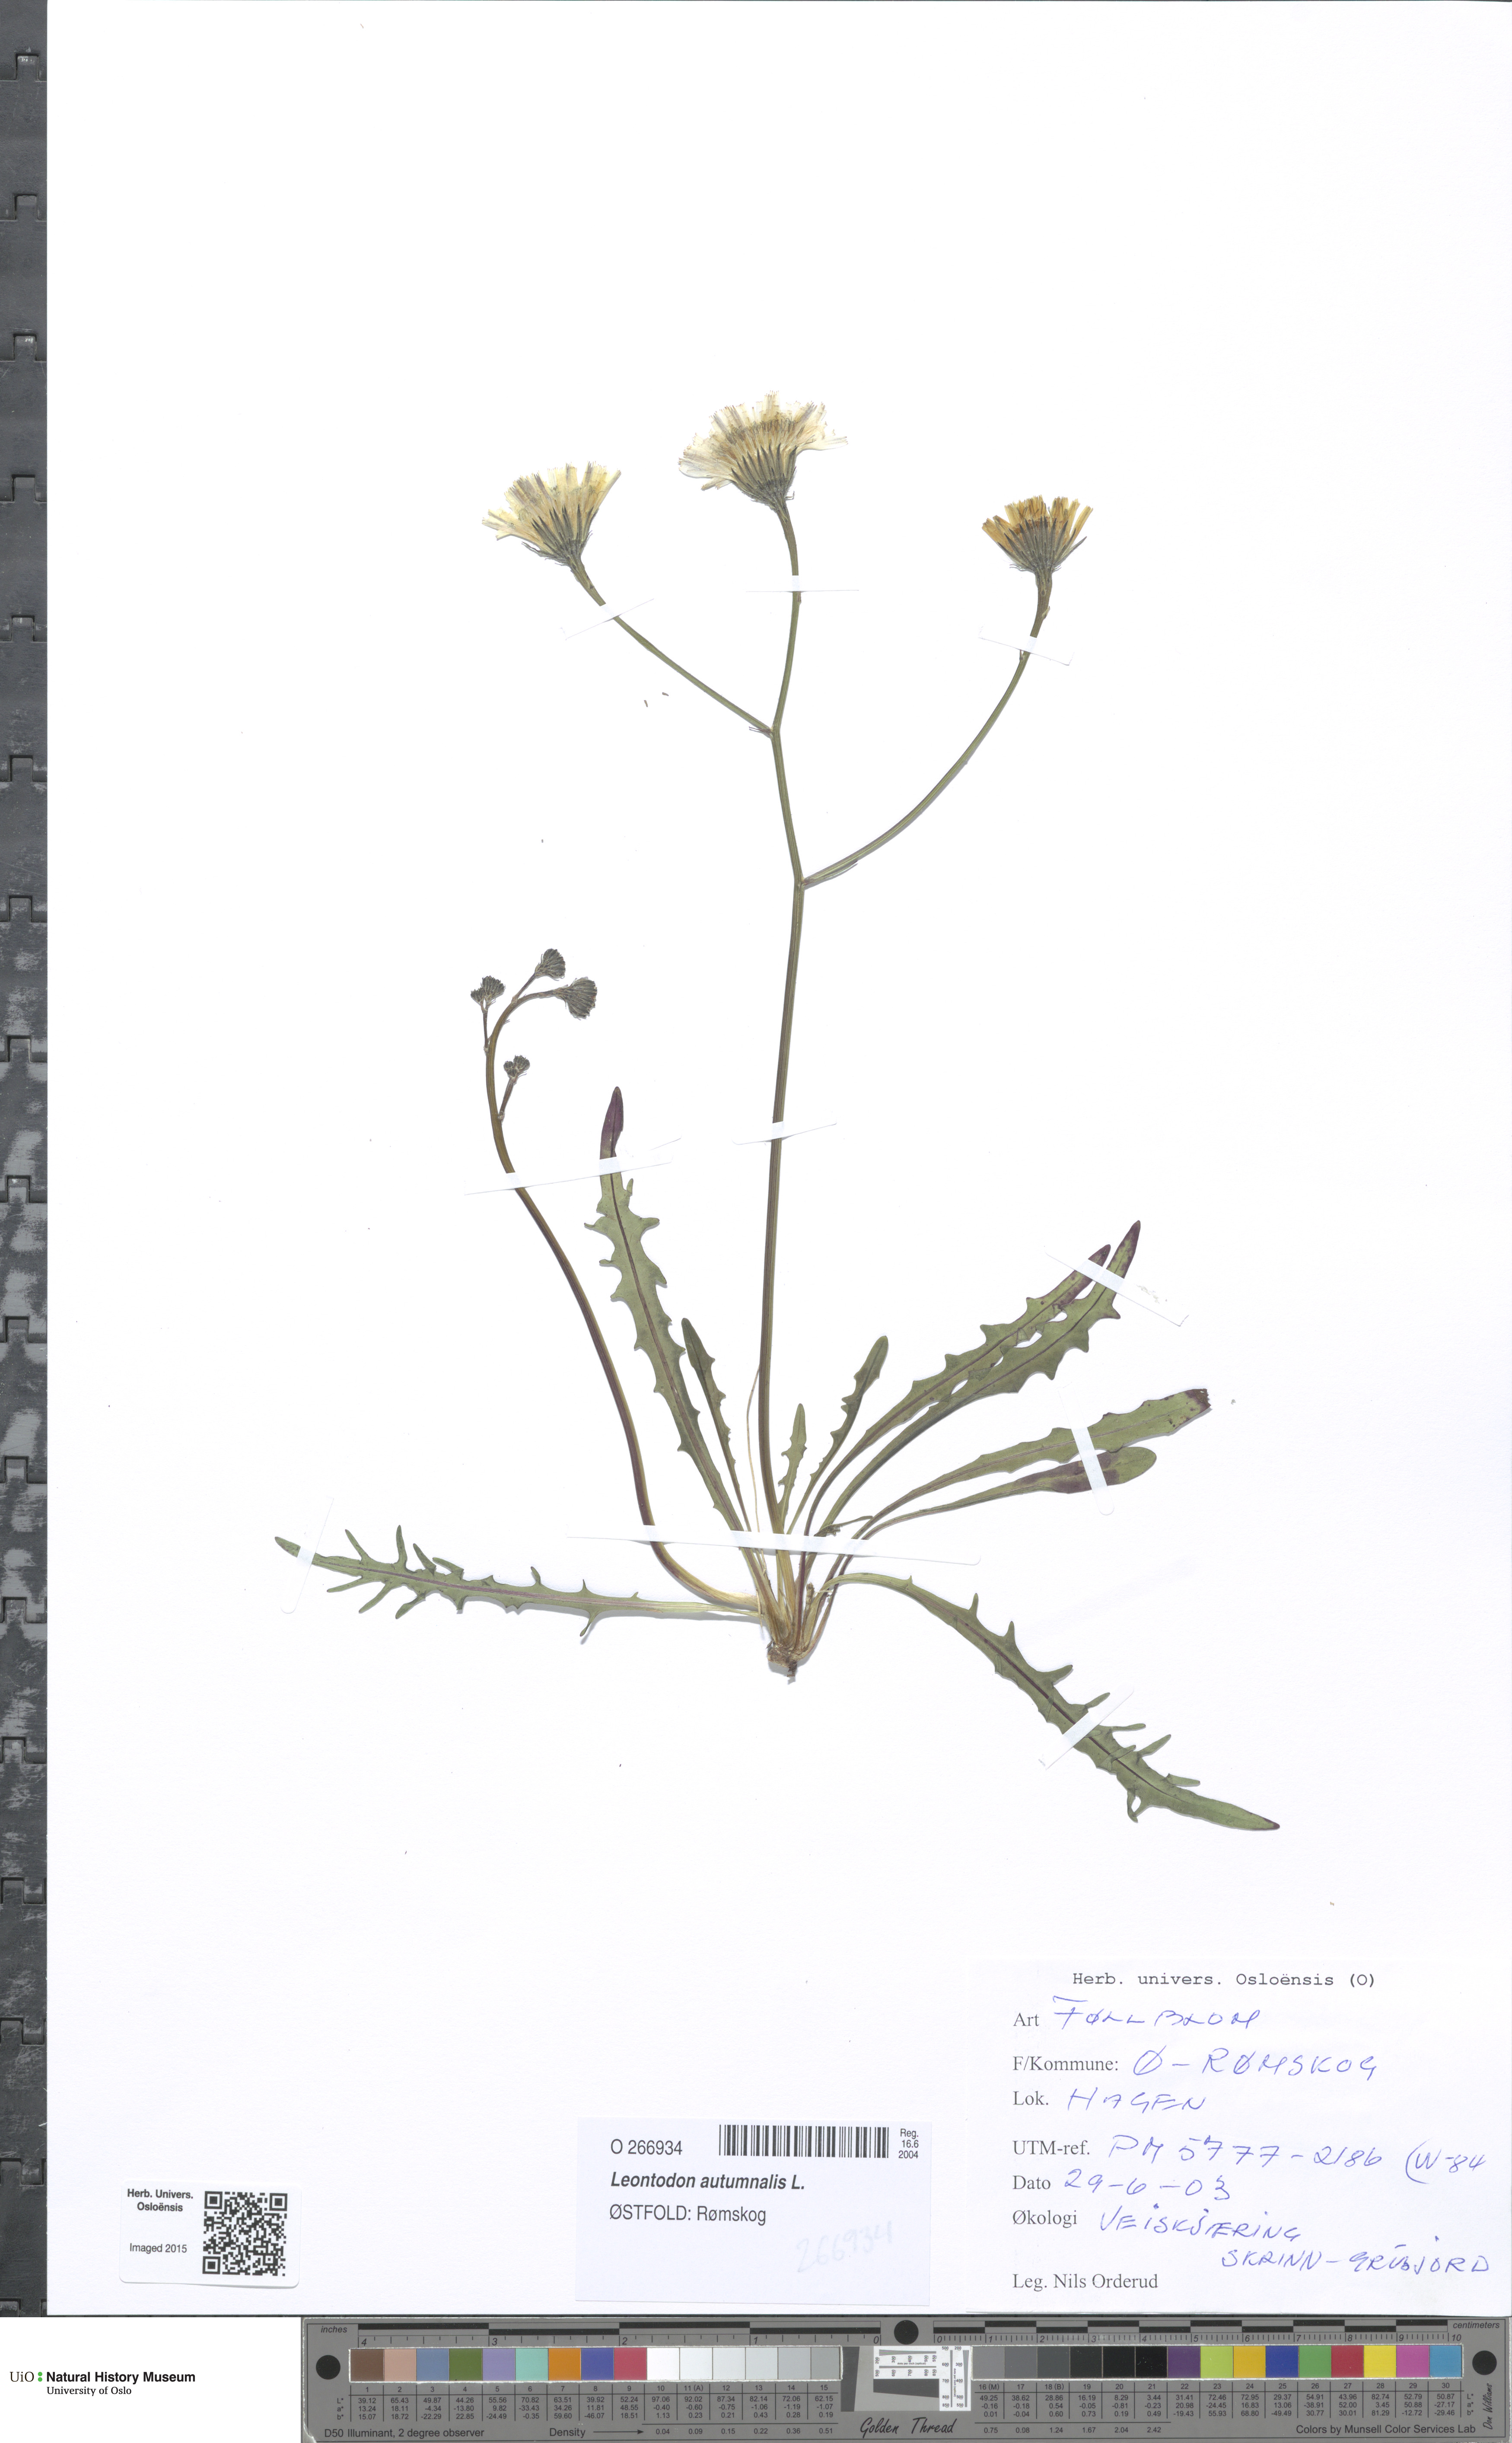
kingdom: Plantae
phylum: Tracheophyta
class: Magnoliopsida
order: Asterales
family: Asteraceae
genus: Scorzoneroides
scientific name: Scorzoneroides autumnalis
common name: Autumn hawkbit
